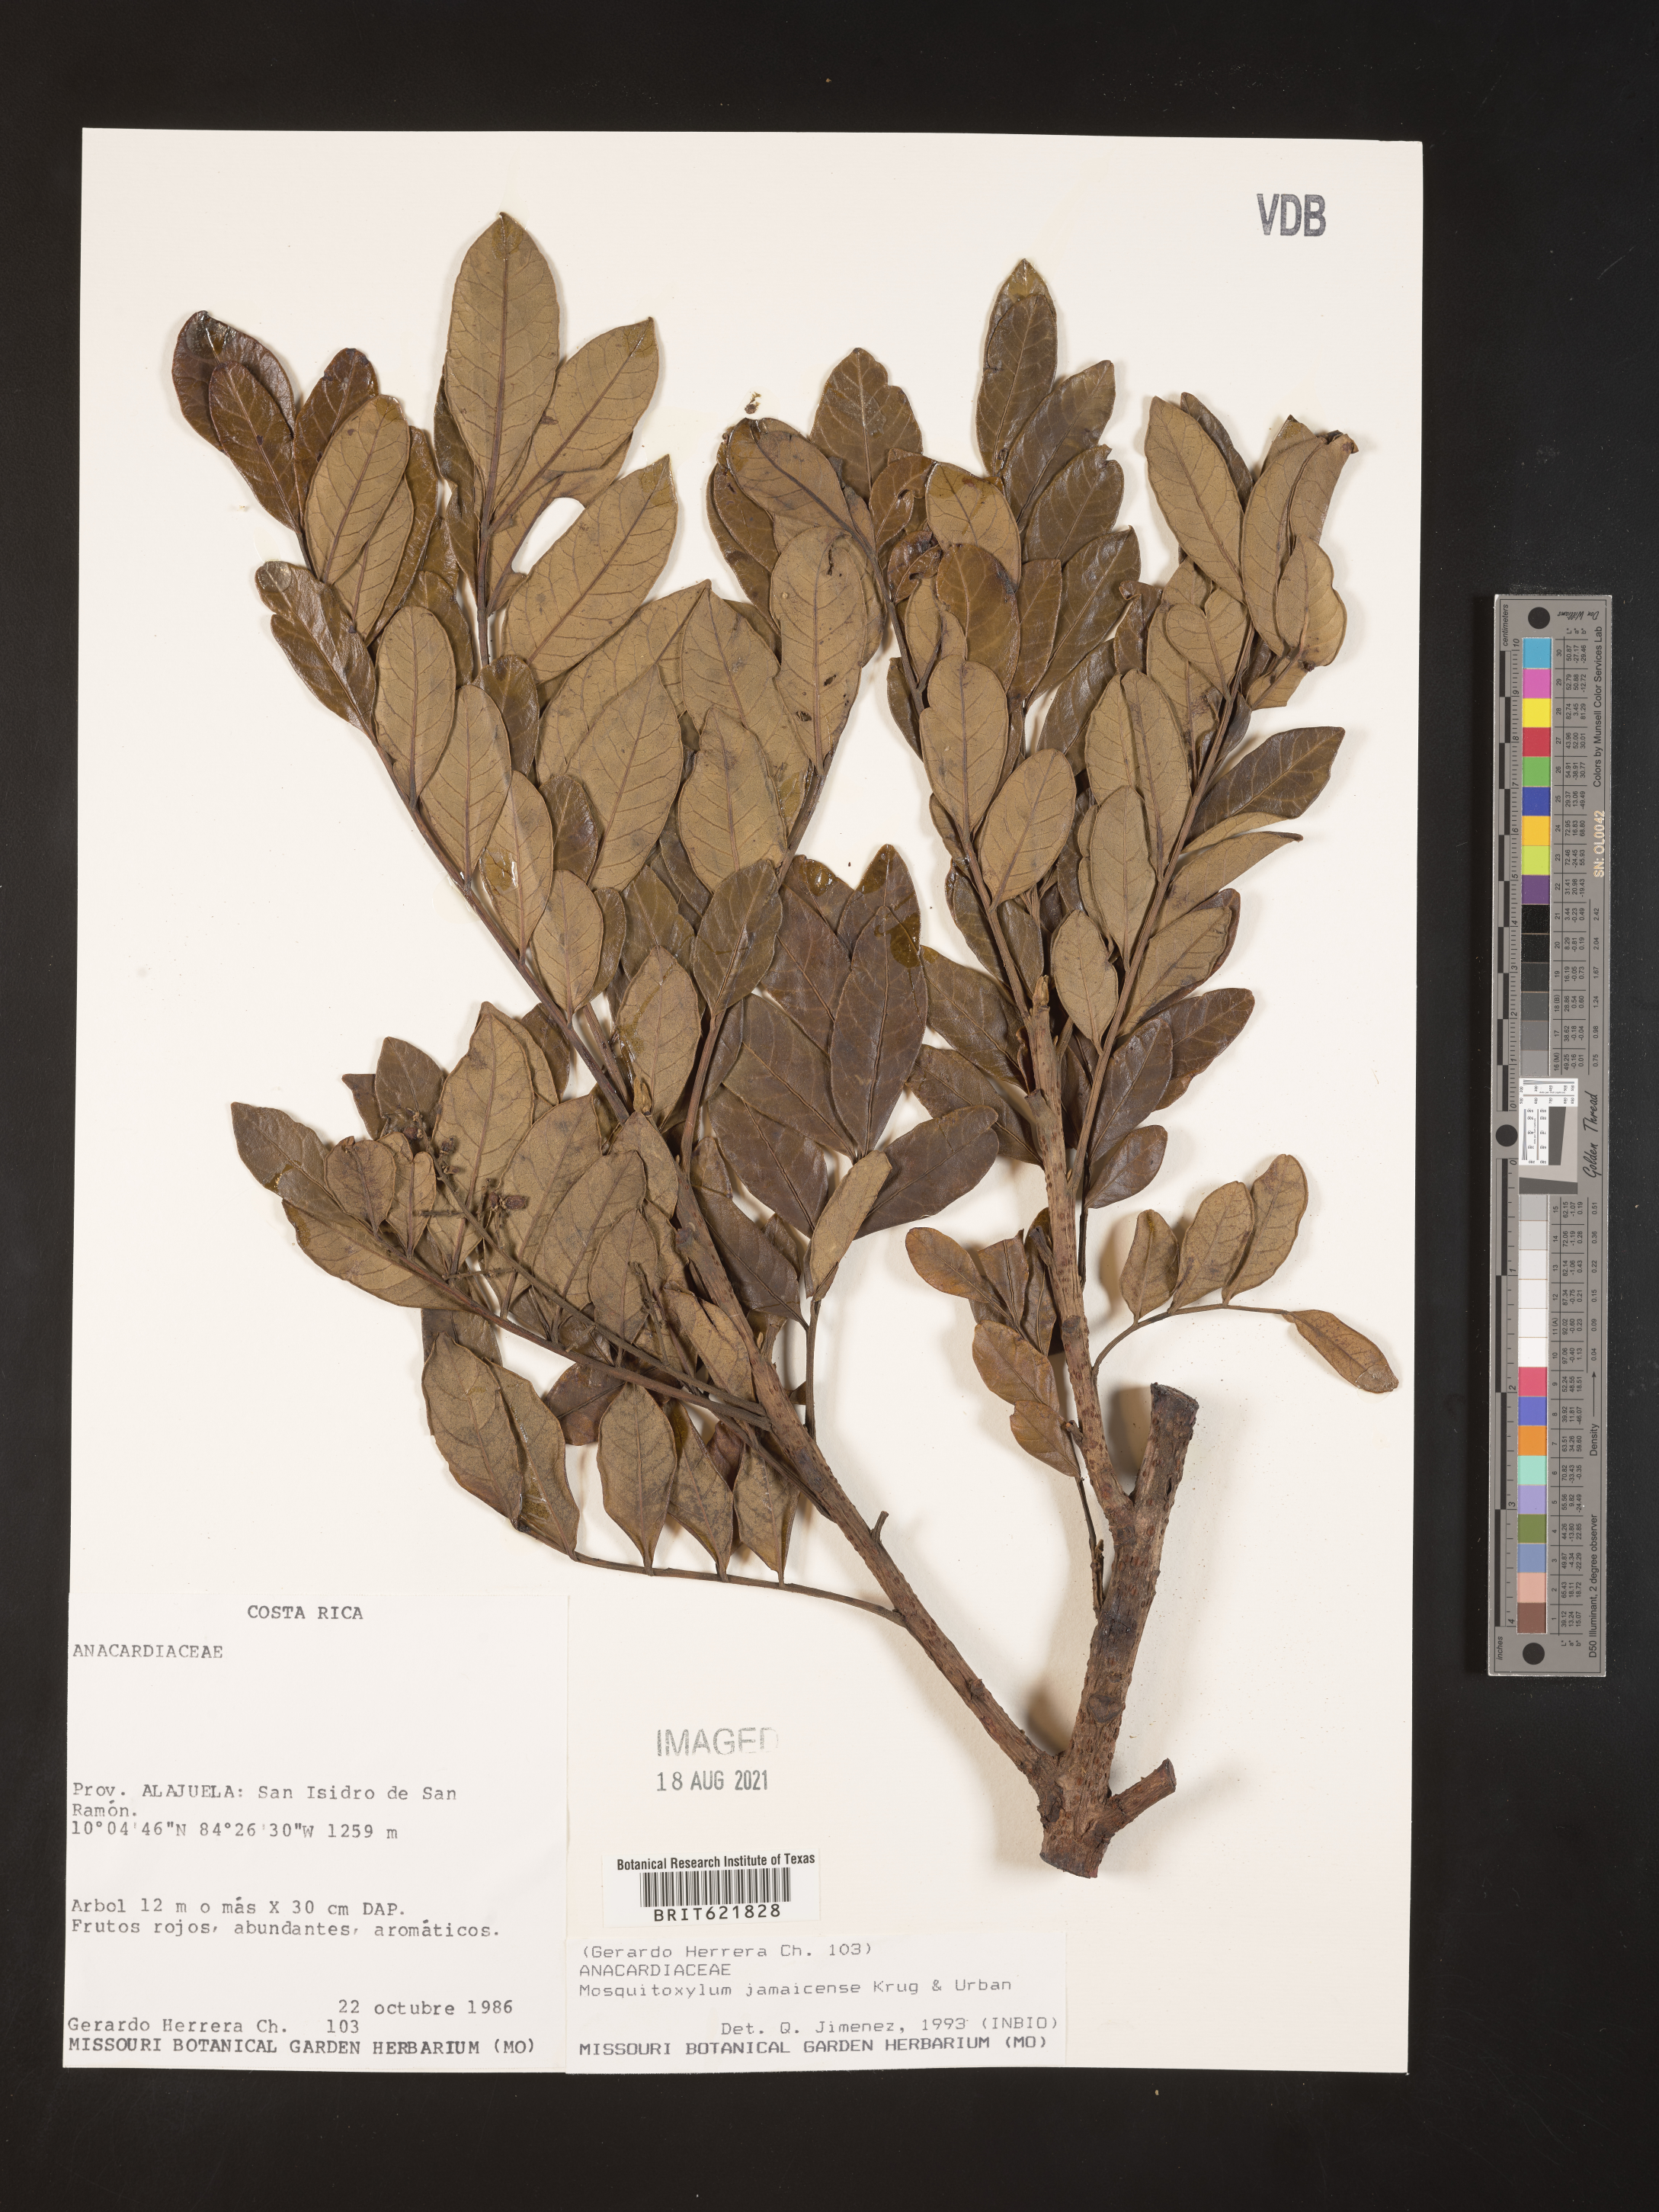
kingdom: Plantae
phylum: Tracheophyta
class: Magnoliopsida
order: Sapindales
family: Anacardiaceae
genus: Mosquitoxylum
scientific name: Mosquitoxylum jamaicense
